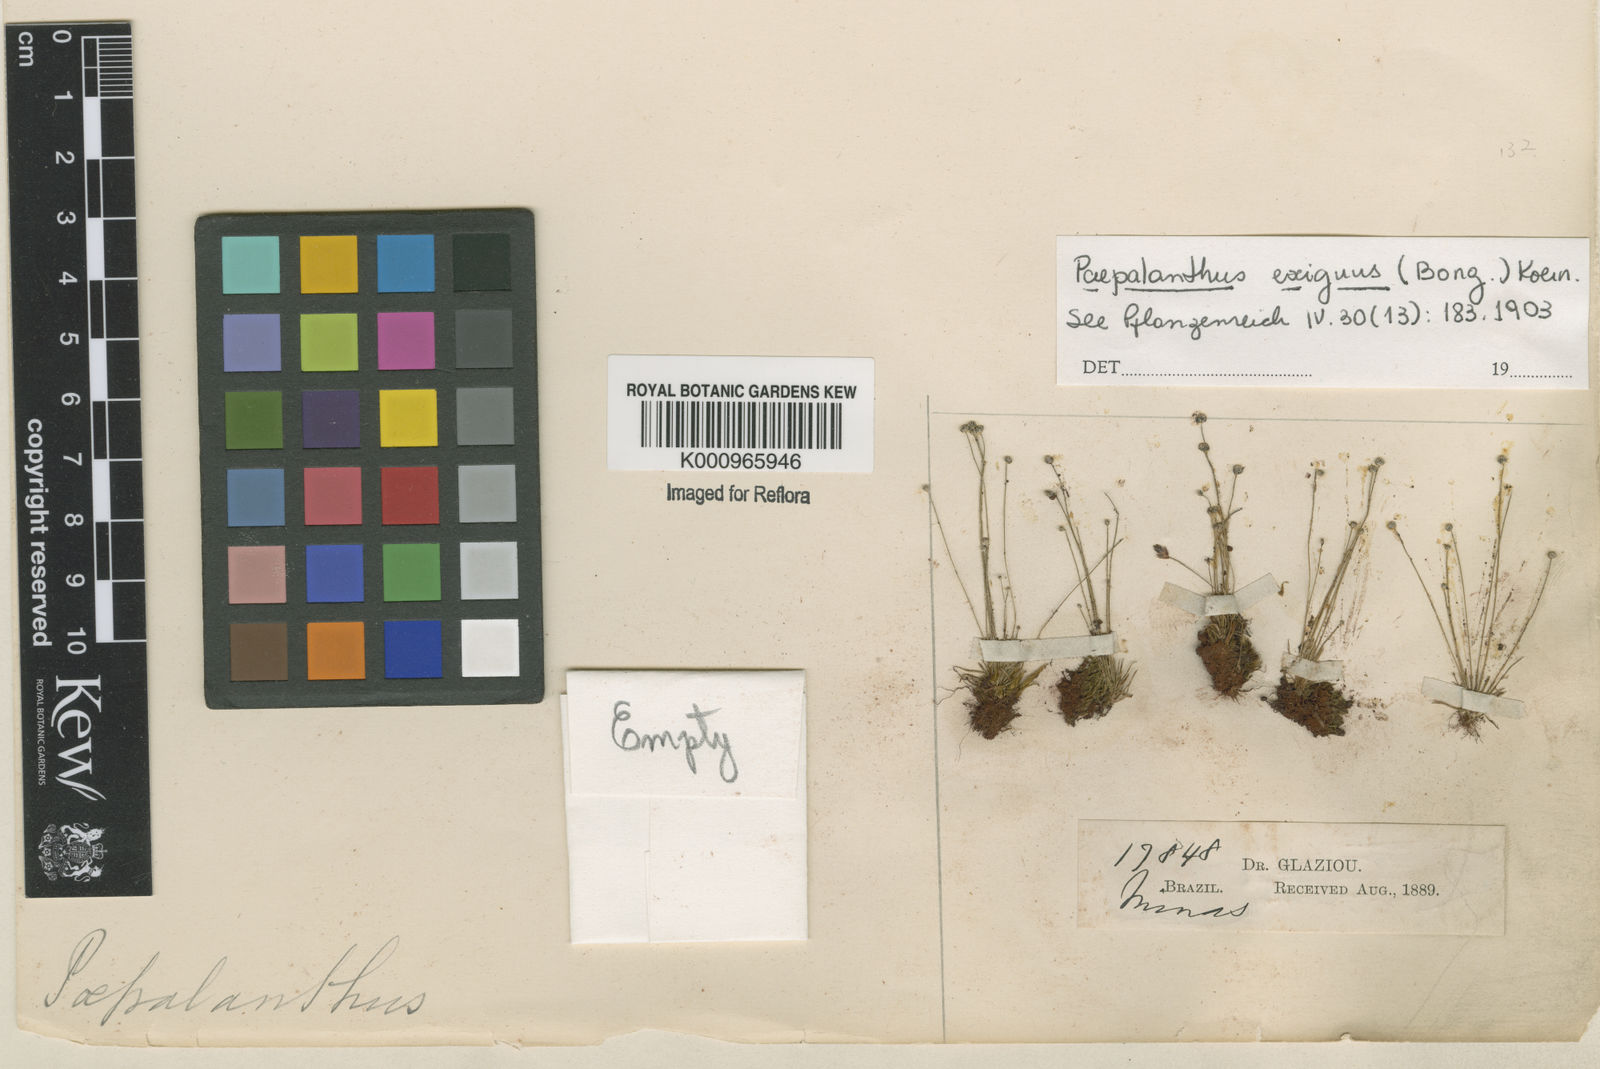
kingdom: Plantae
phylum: Tracheophyta
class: Liliopsida
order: Poales
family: Eriocaulaceae
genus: Paepalanthus
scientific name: Paepalanthus
